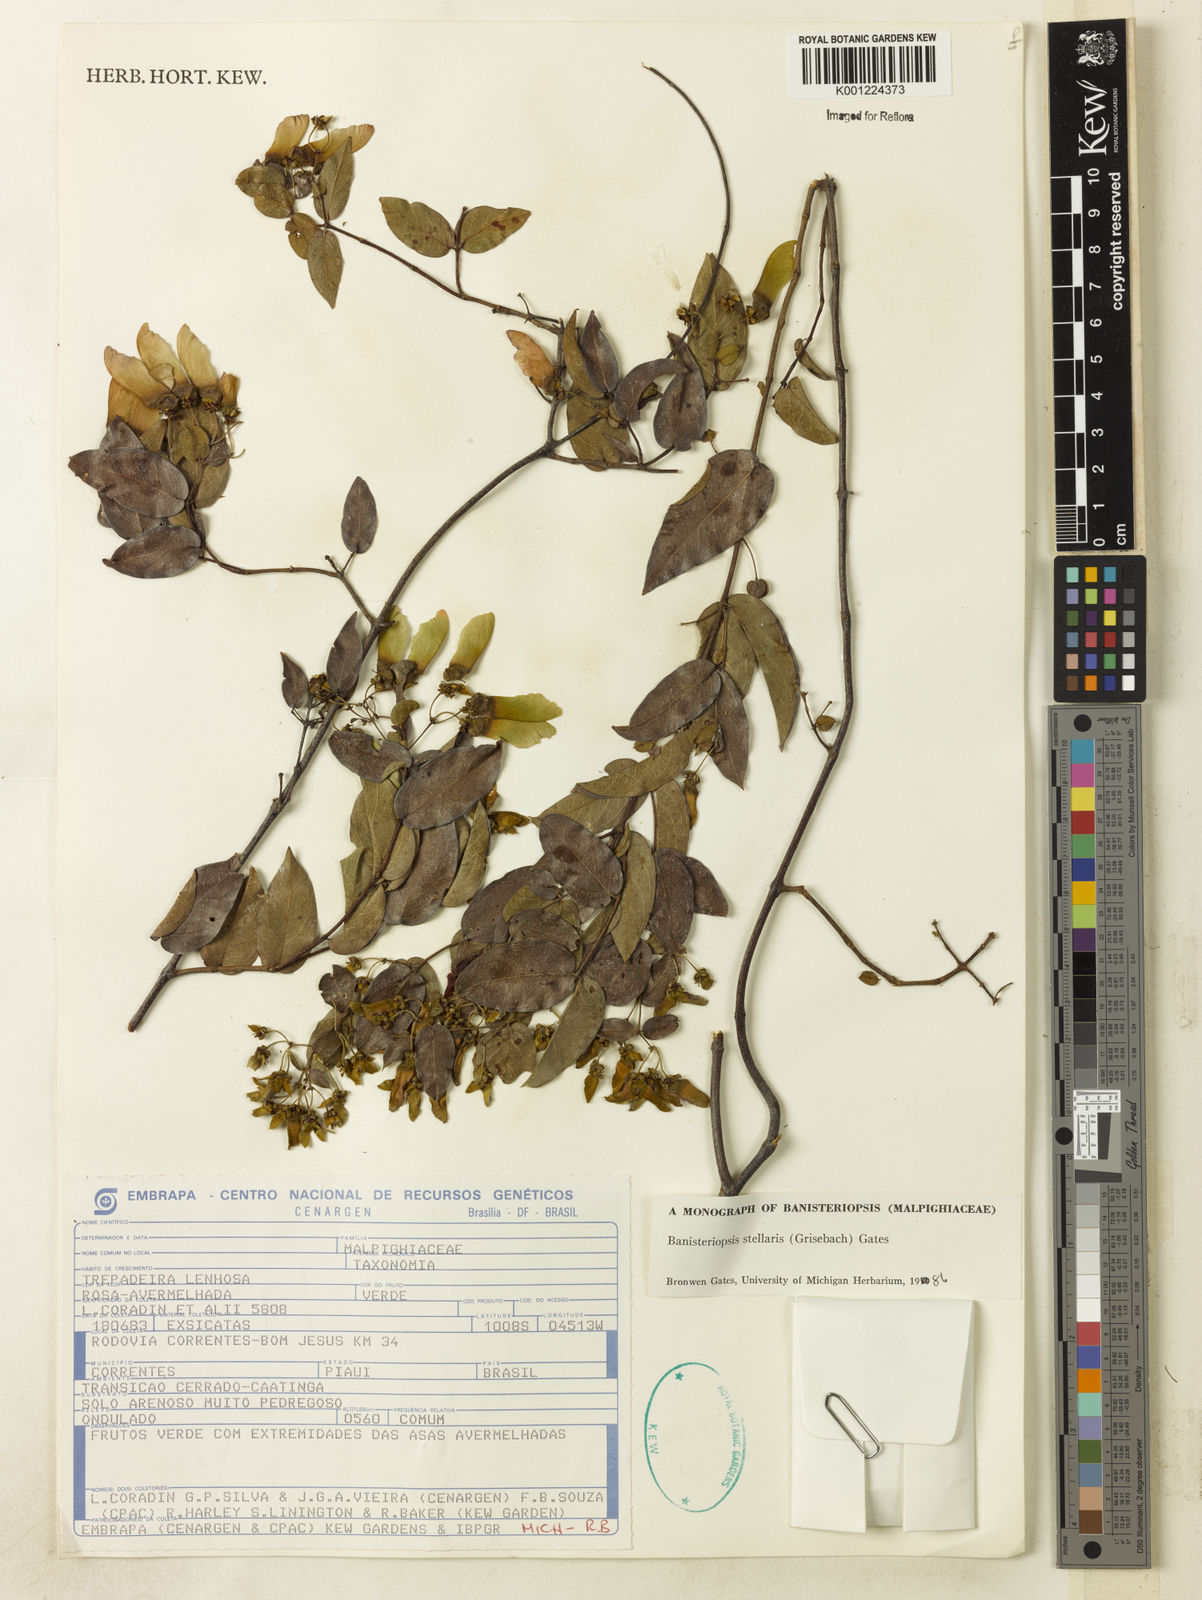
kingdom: Plantae
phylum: Tracheophyta
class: Magnoliopsida
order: Malpighiales
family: Malpighiaceae
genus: Banisteriopsis
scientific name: Banisteriopsis stellaris
